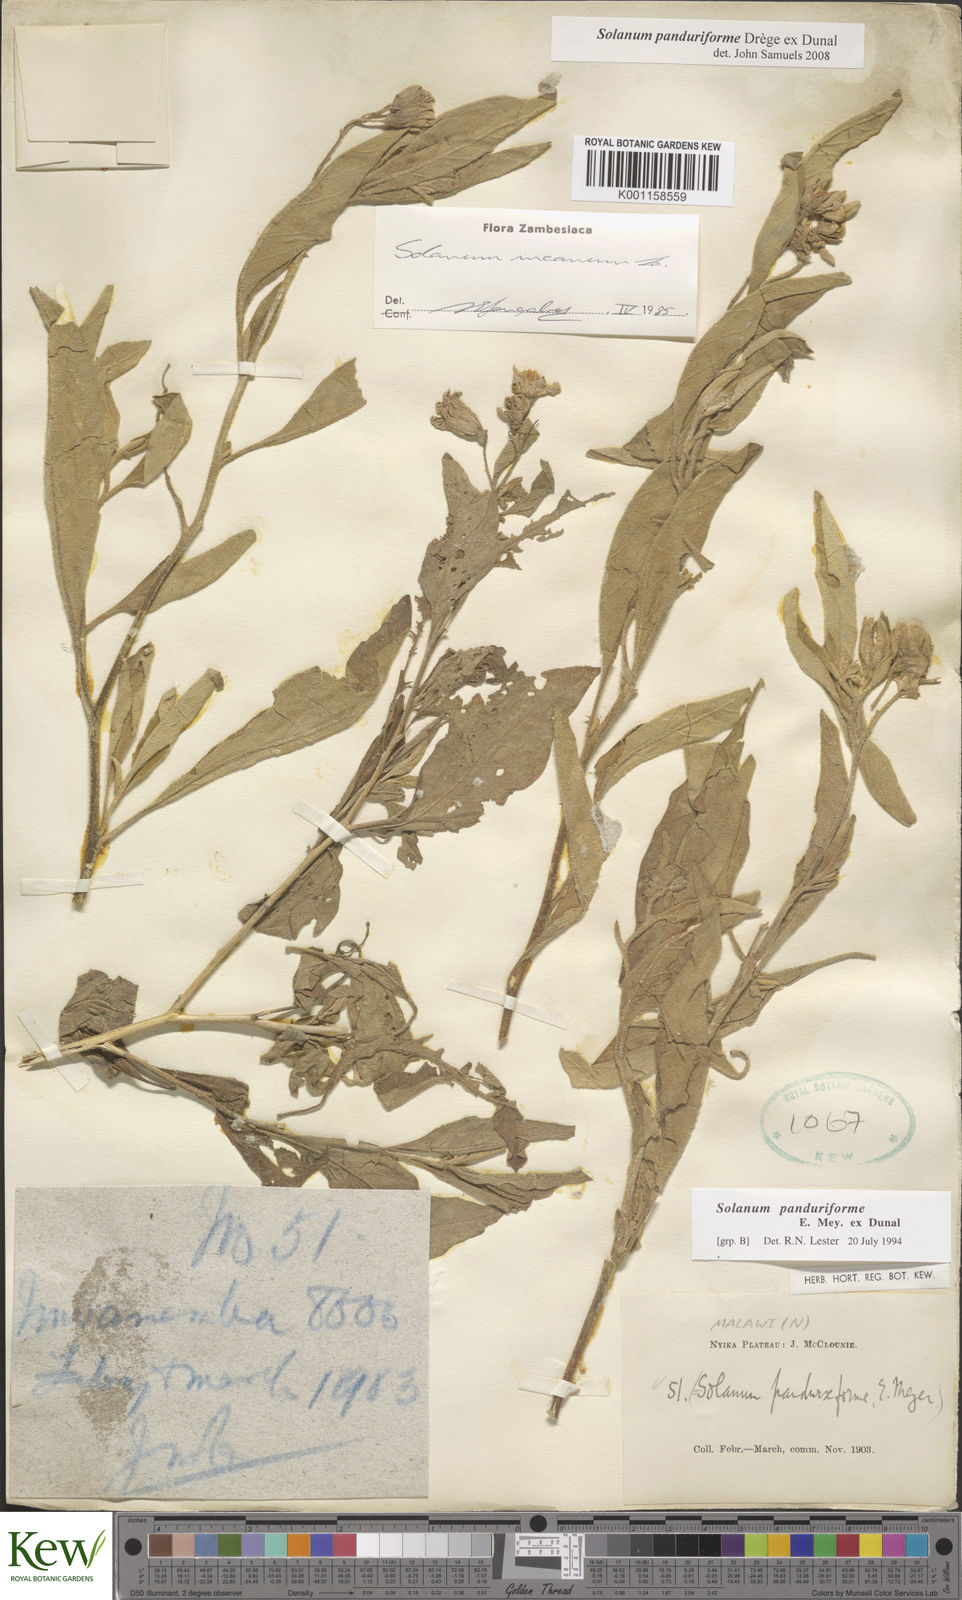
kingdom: Plantae
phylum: Tracheophyta
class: Magnoliopsida
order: Solanales
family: Solanaceae
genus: Solanum
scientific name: Solanum campylacanthum
